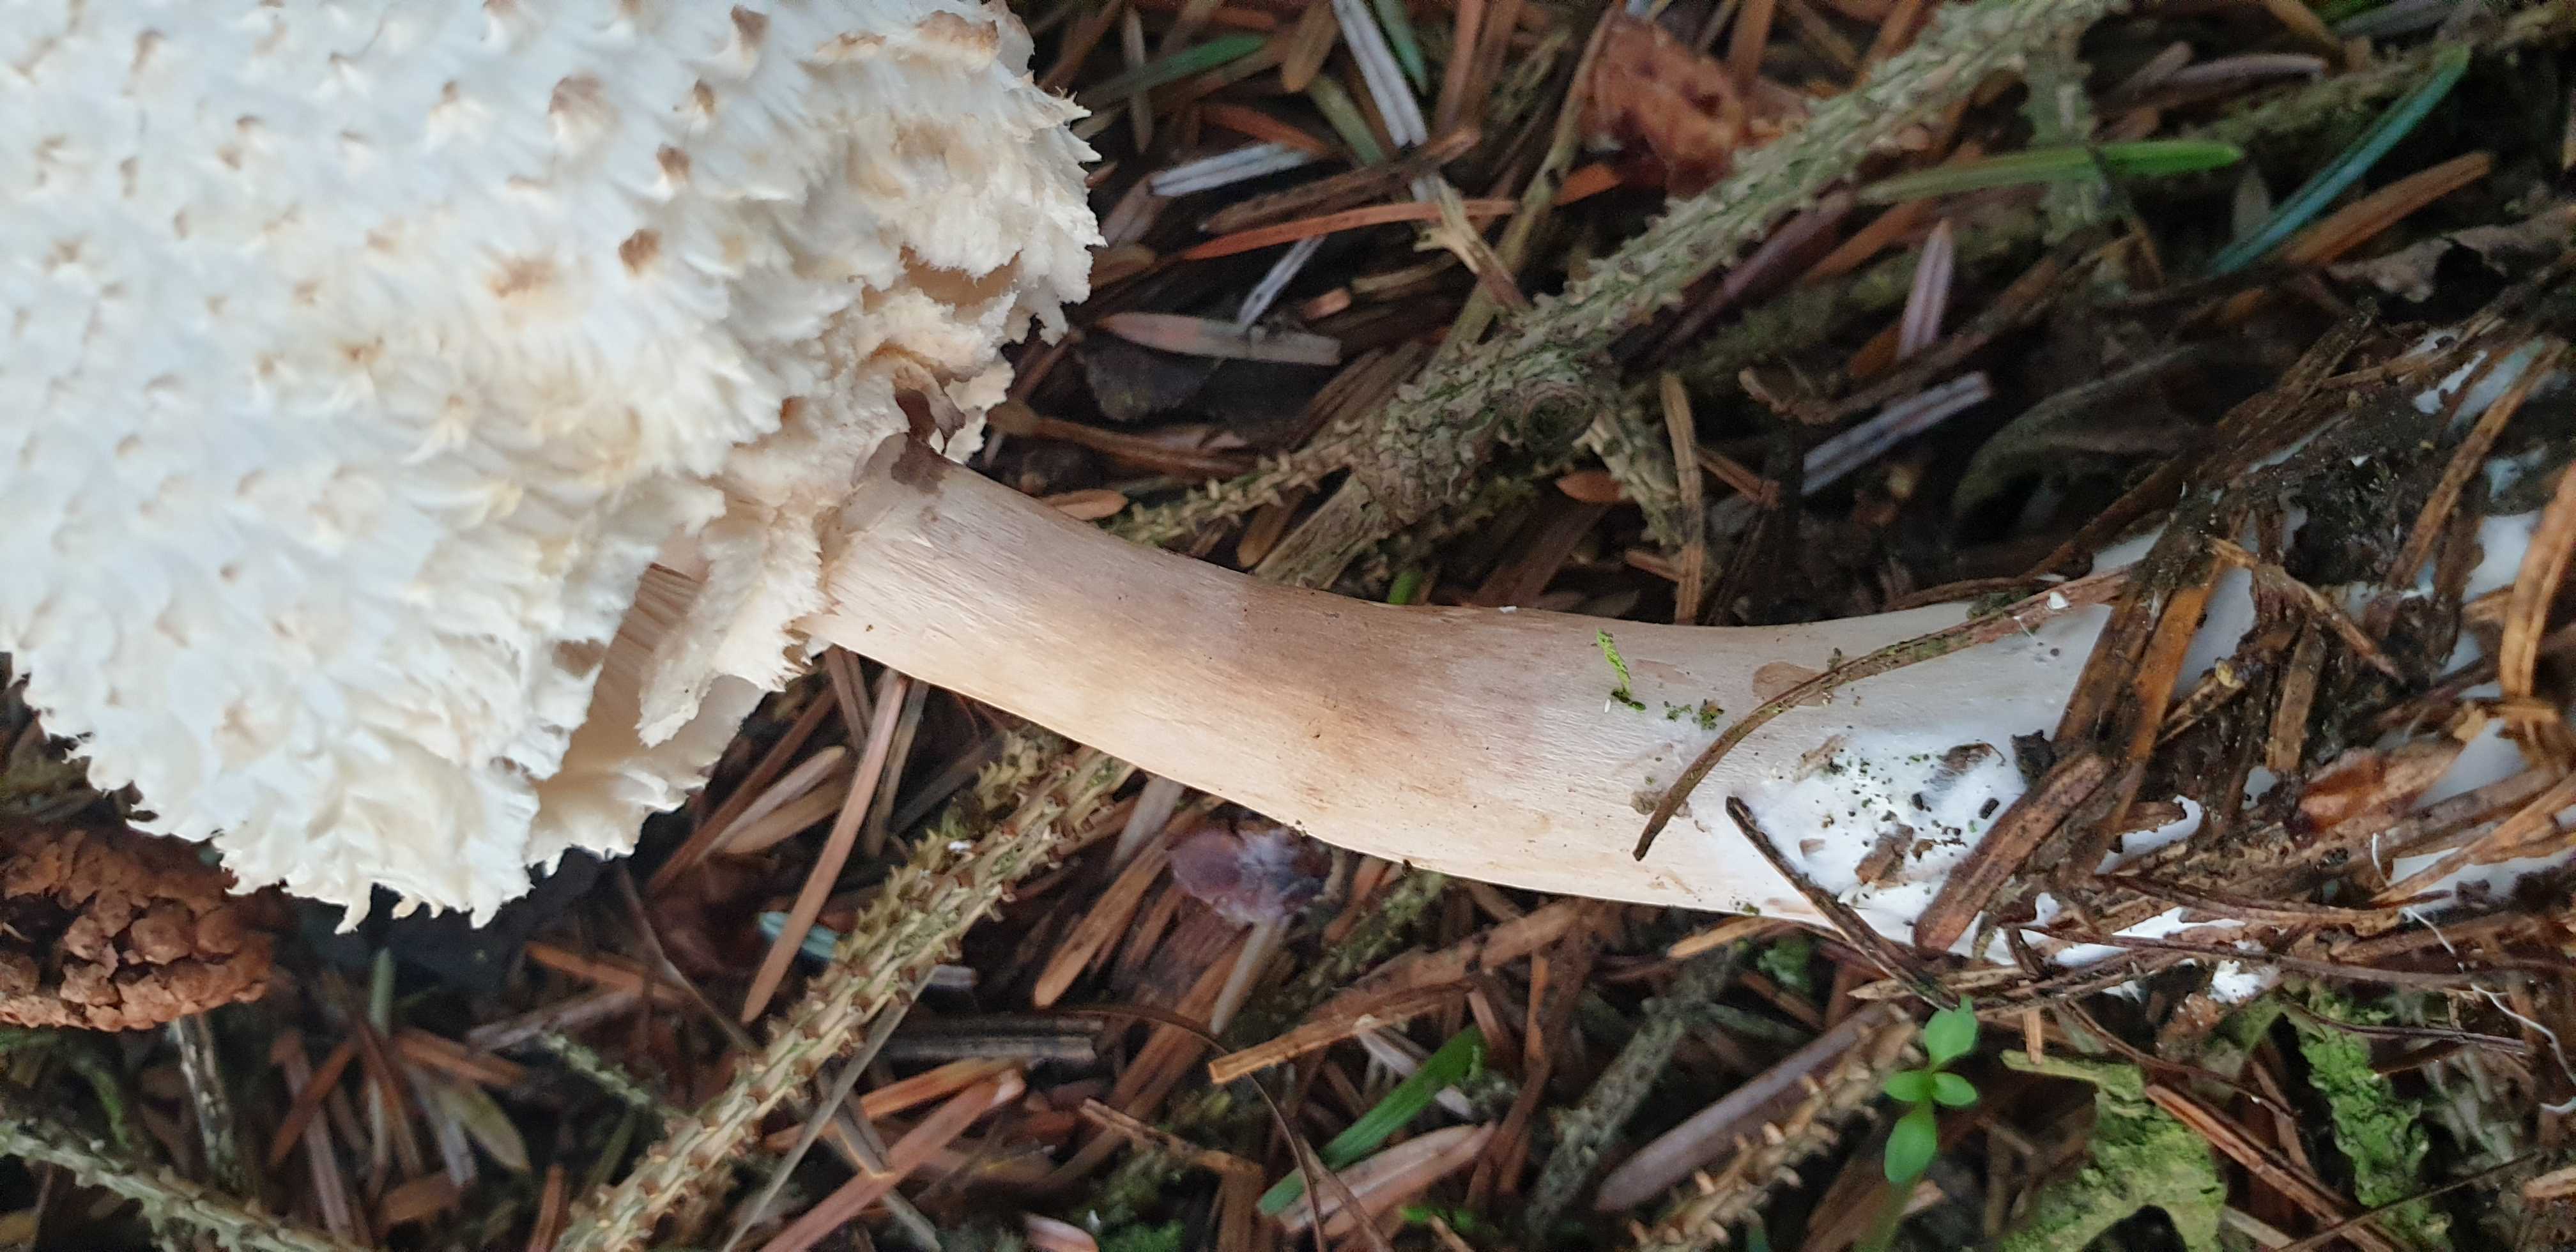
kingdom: Fungi
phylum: Basidiomycota
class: Agaricomycetes
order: Agaricales
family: Agaricaceae
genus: Leucoagaricus
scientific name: Leucoagaricus nympharum
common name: gran-silkehat
